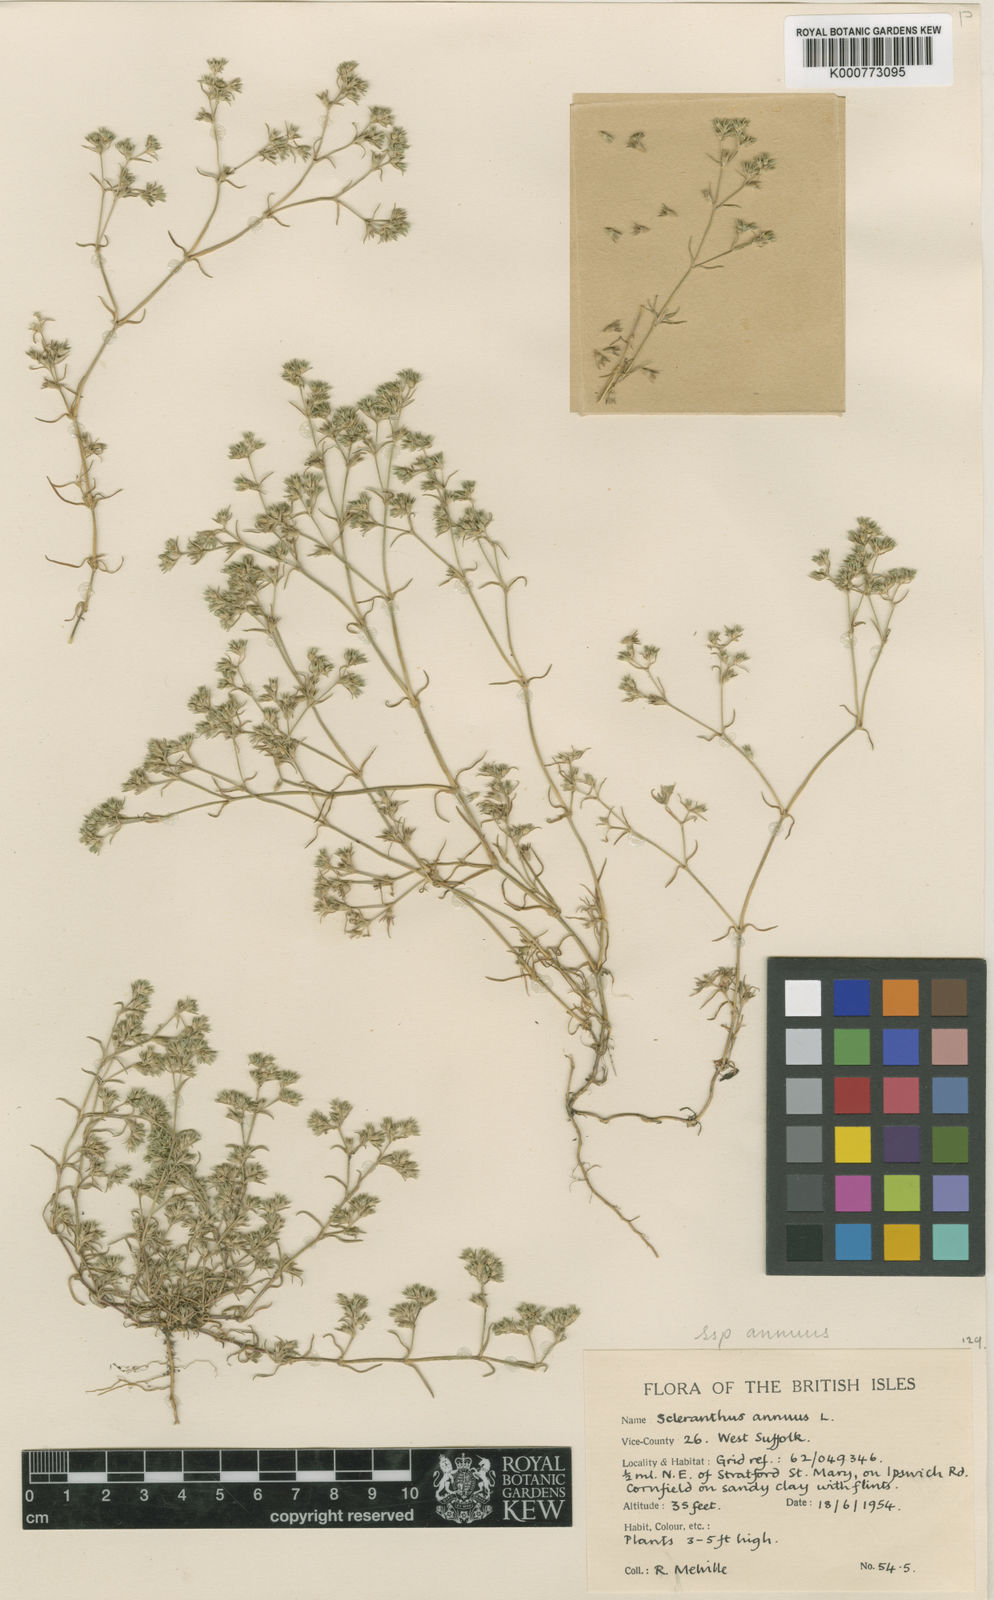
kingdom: Plantae
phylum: Tracheophyta
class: Magnoliopsida
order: Caryophyllales
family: Caryophyllaceae
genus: Scleranthus
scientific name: Scleranthus annuus
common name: Annual knawel
